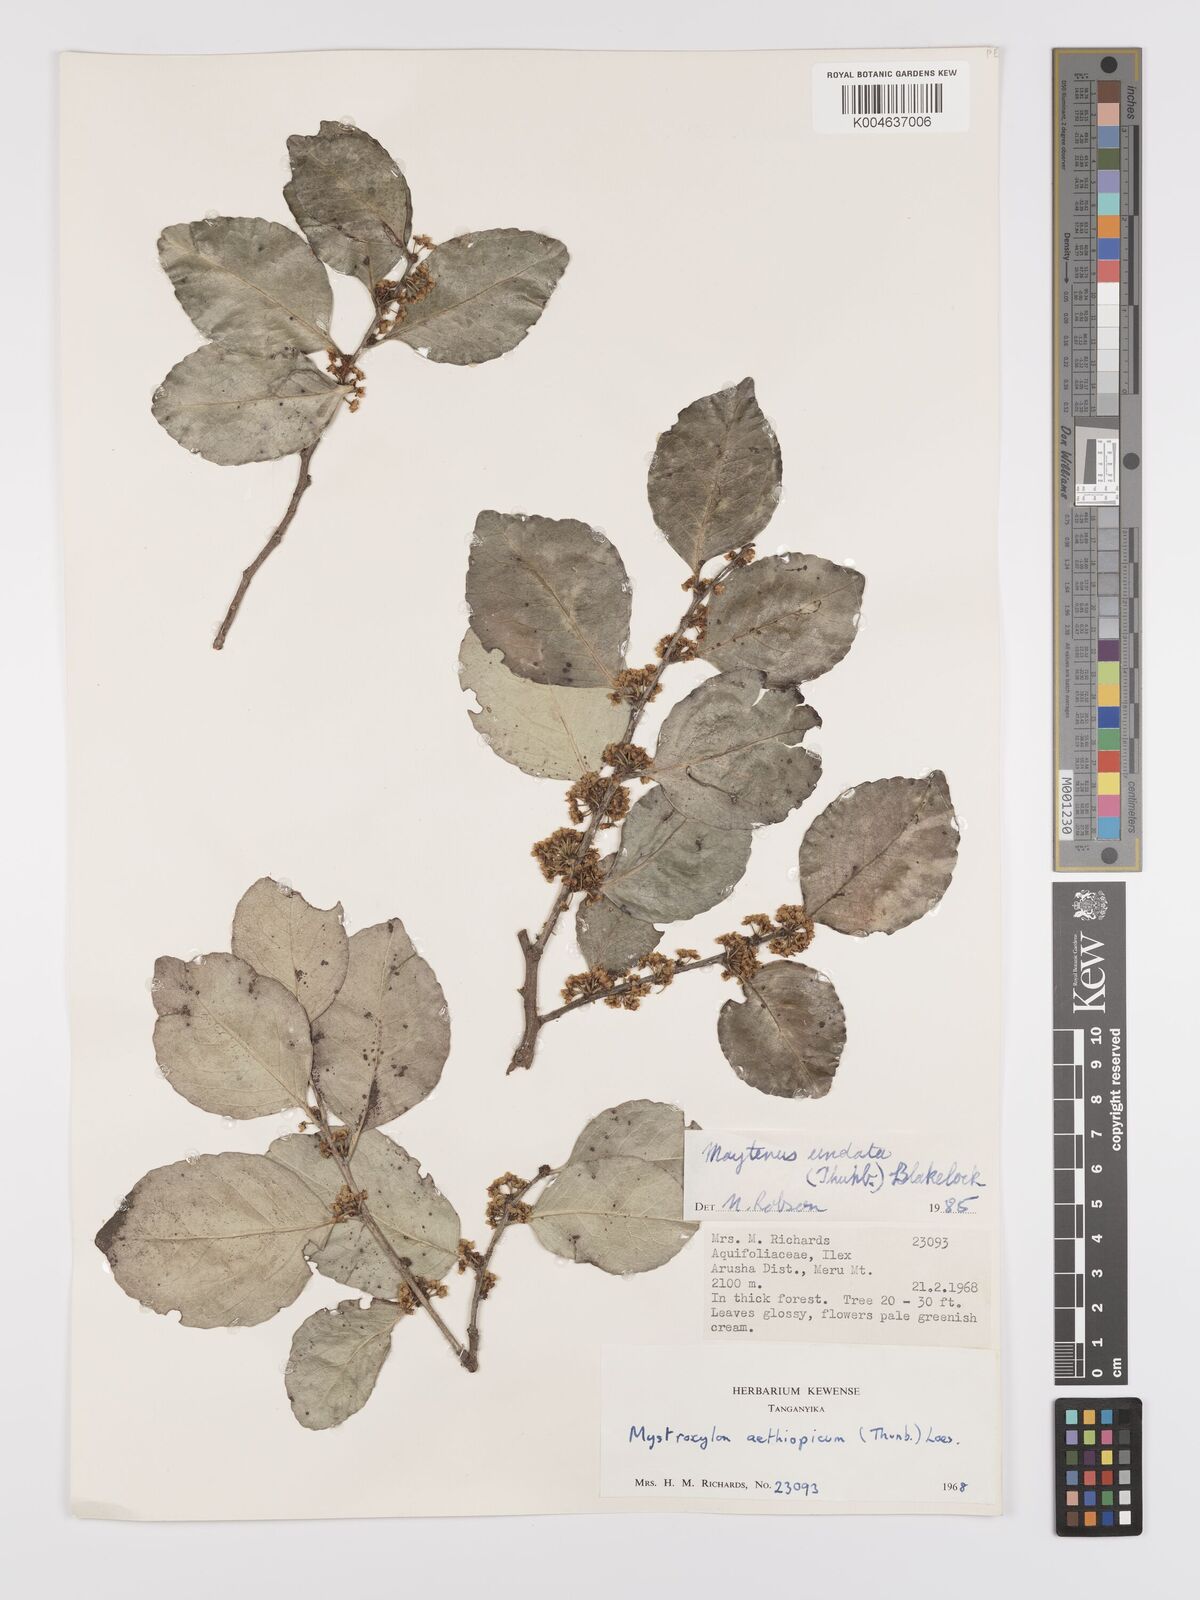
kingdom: Plantae
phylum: Tracheophyta
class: Magnoliopsida
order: Celastrales
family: Celastraceae
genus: Gymnosporia
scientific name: Gymnosporia undata
